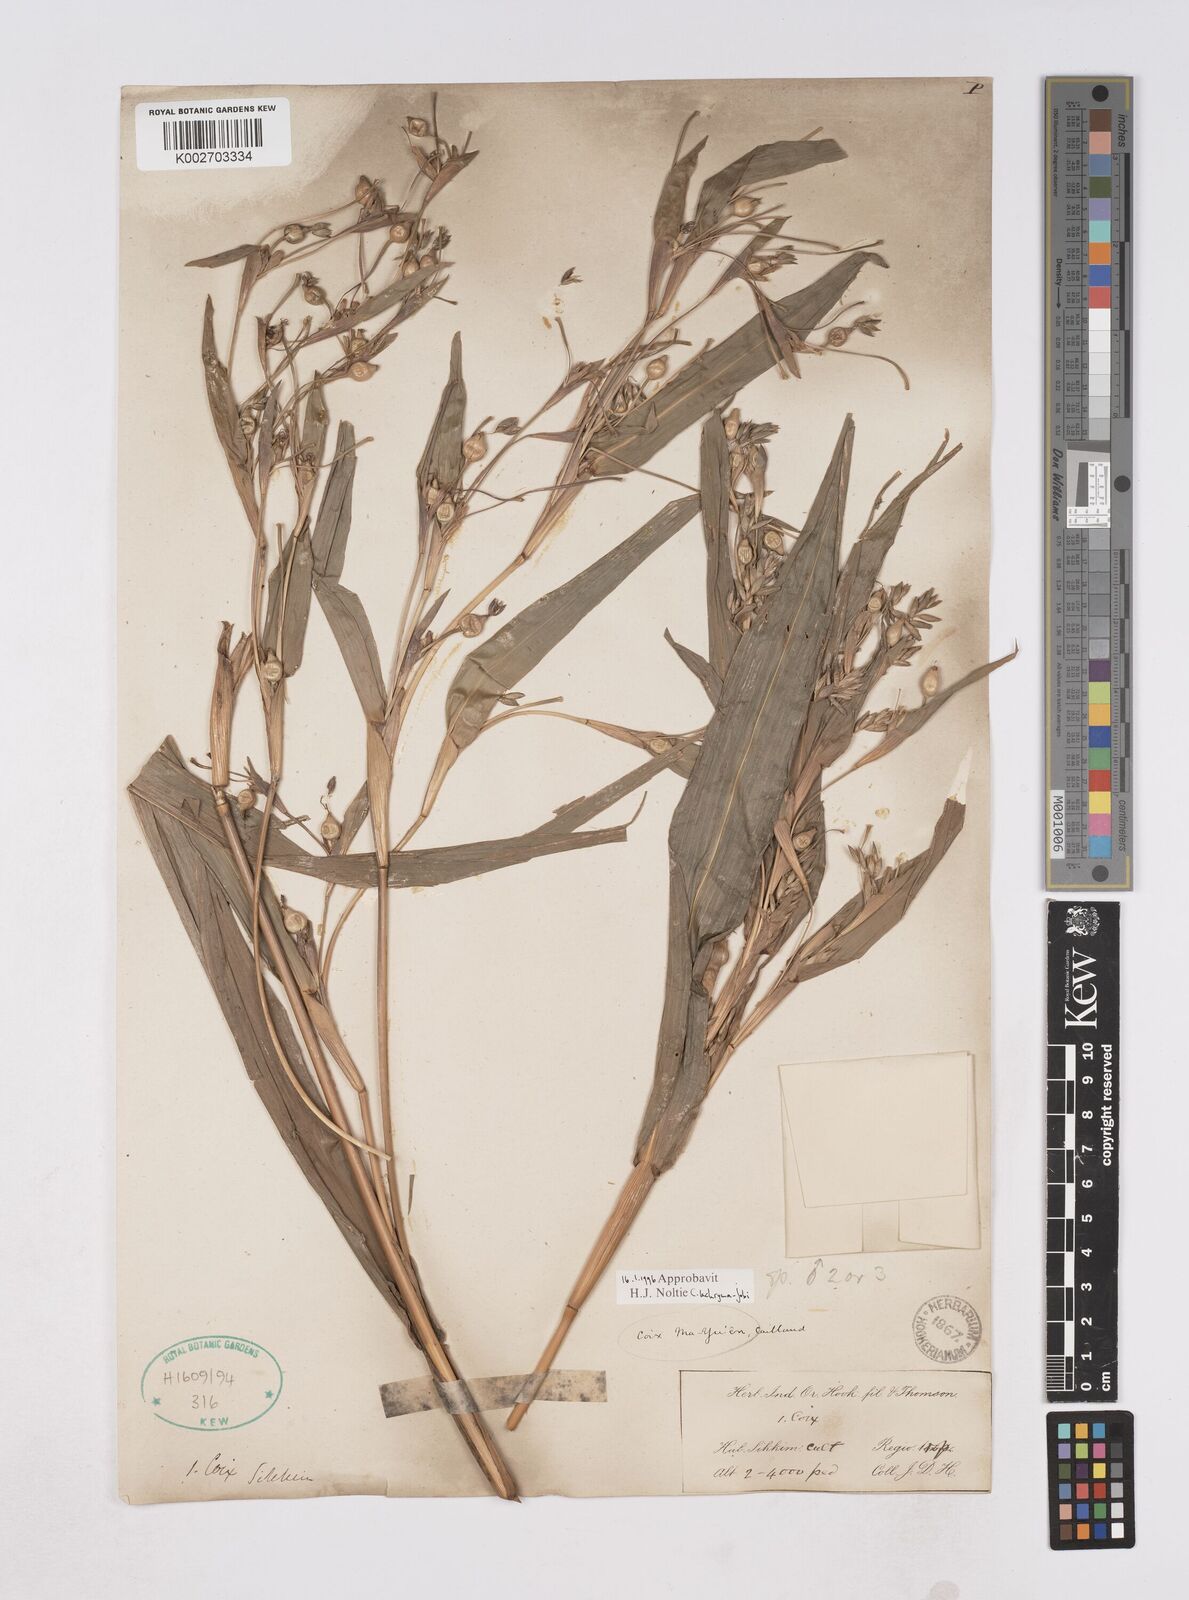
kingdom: Plantae
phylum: Tracheophyta
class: Liliopsida
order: Poales
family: Poaceae
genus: Coix
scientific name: Coix lacryma-jobi
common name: Job's tears
